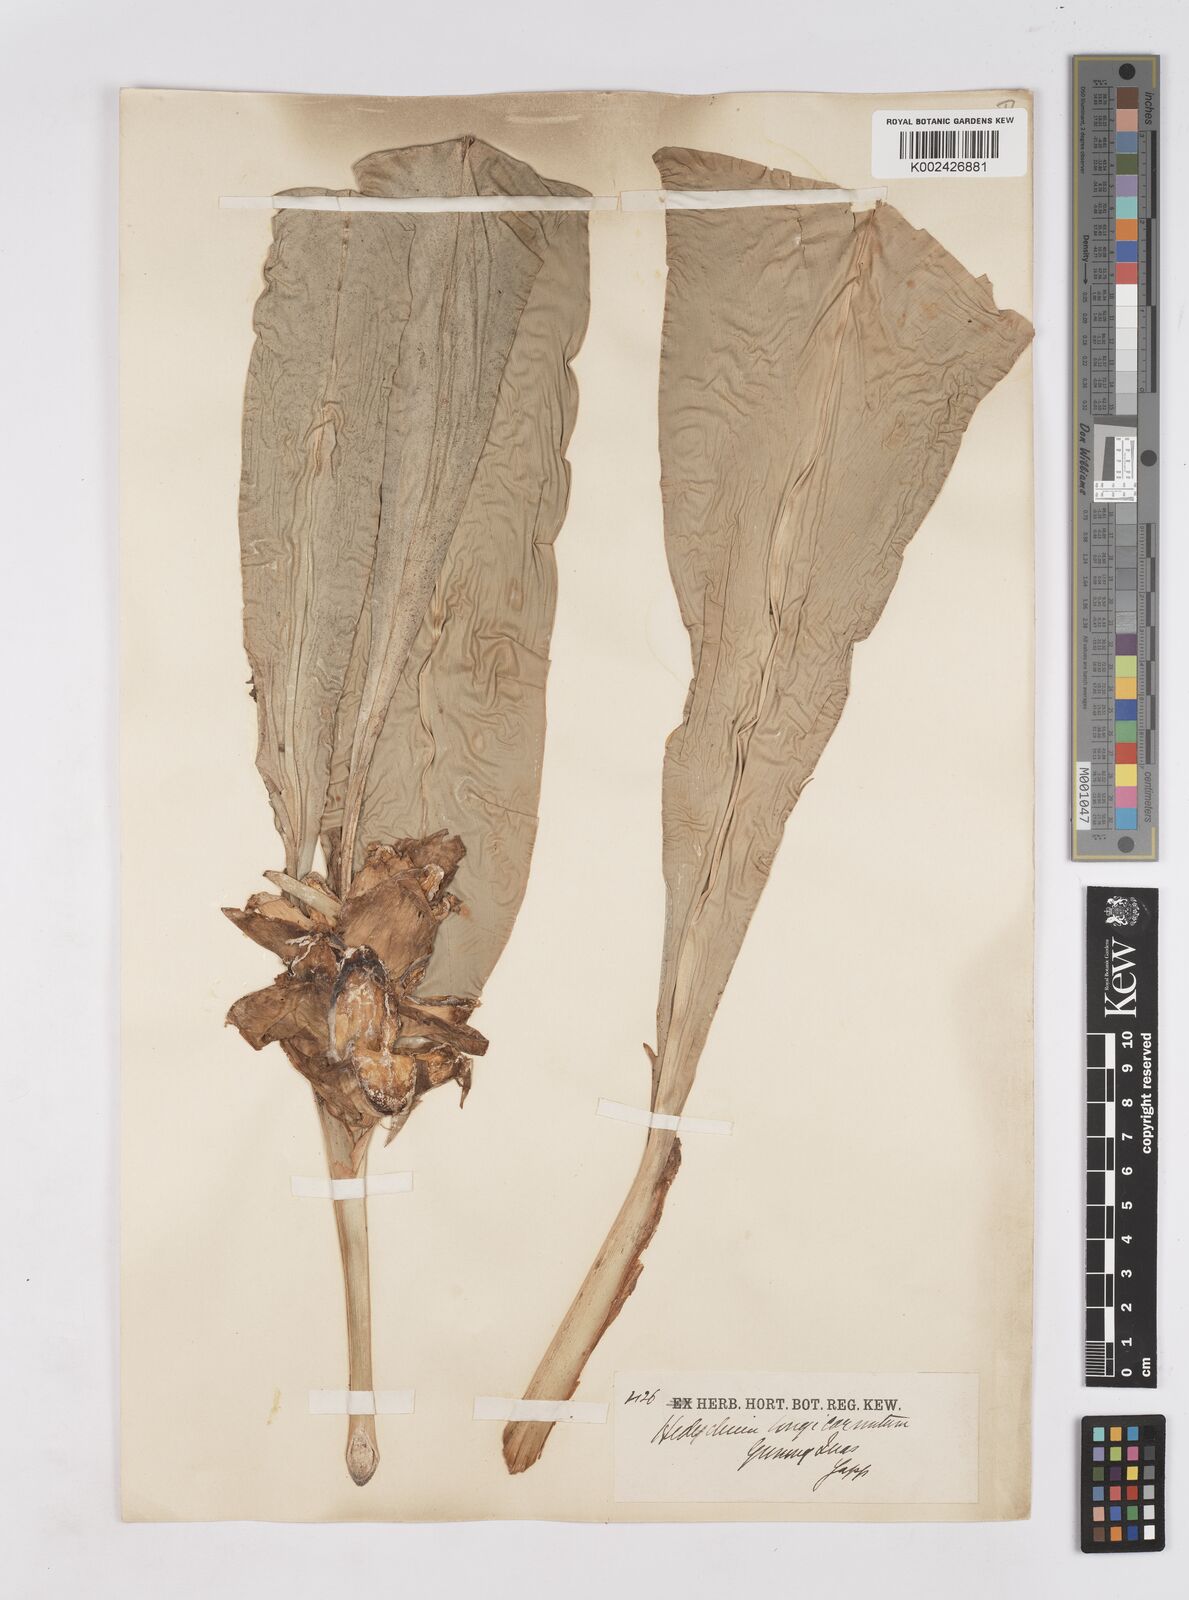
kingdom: Plantae
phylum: Tracheophyta
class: Liliopsida
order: Zingiberales
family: Zingiberaceae
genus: Hedychium
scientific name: Hedychium longicornutum
